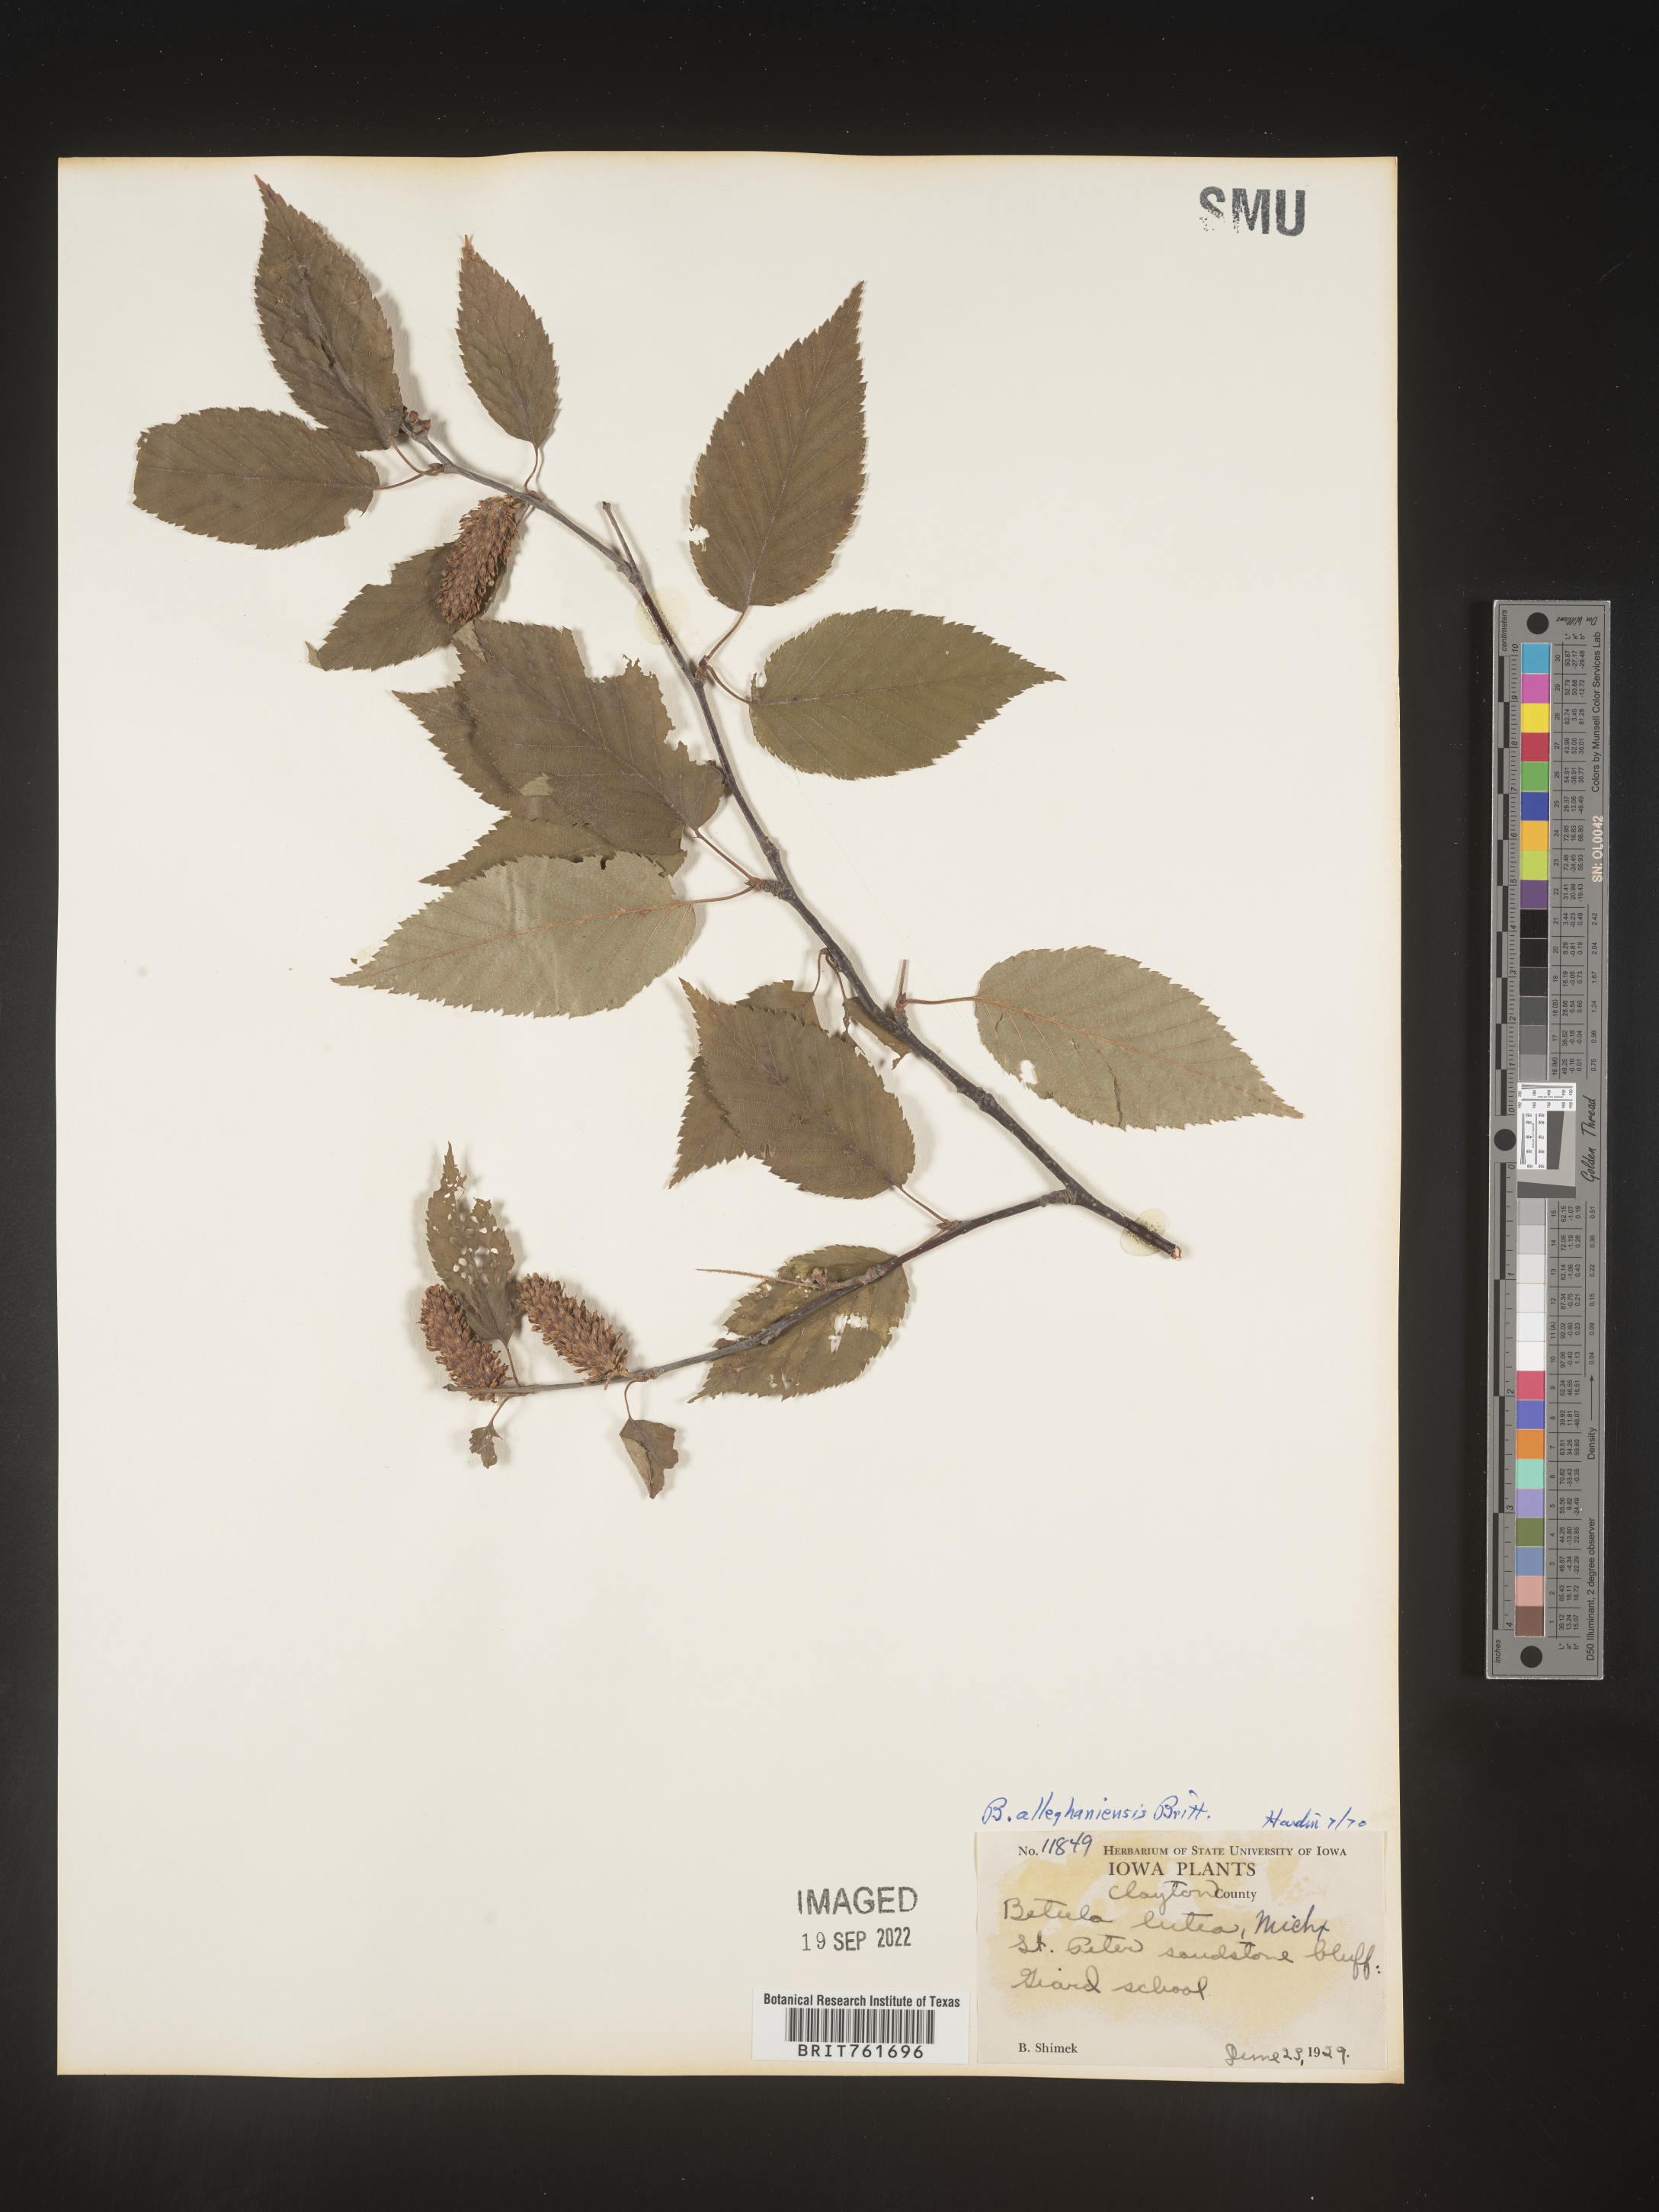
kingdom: Plantae
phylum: Tracheophyta
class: Magnoliopsida
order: Fagales
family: Betulaceae
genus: Betula
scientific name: Betula alleghaniensis
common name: Yellow birch
